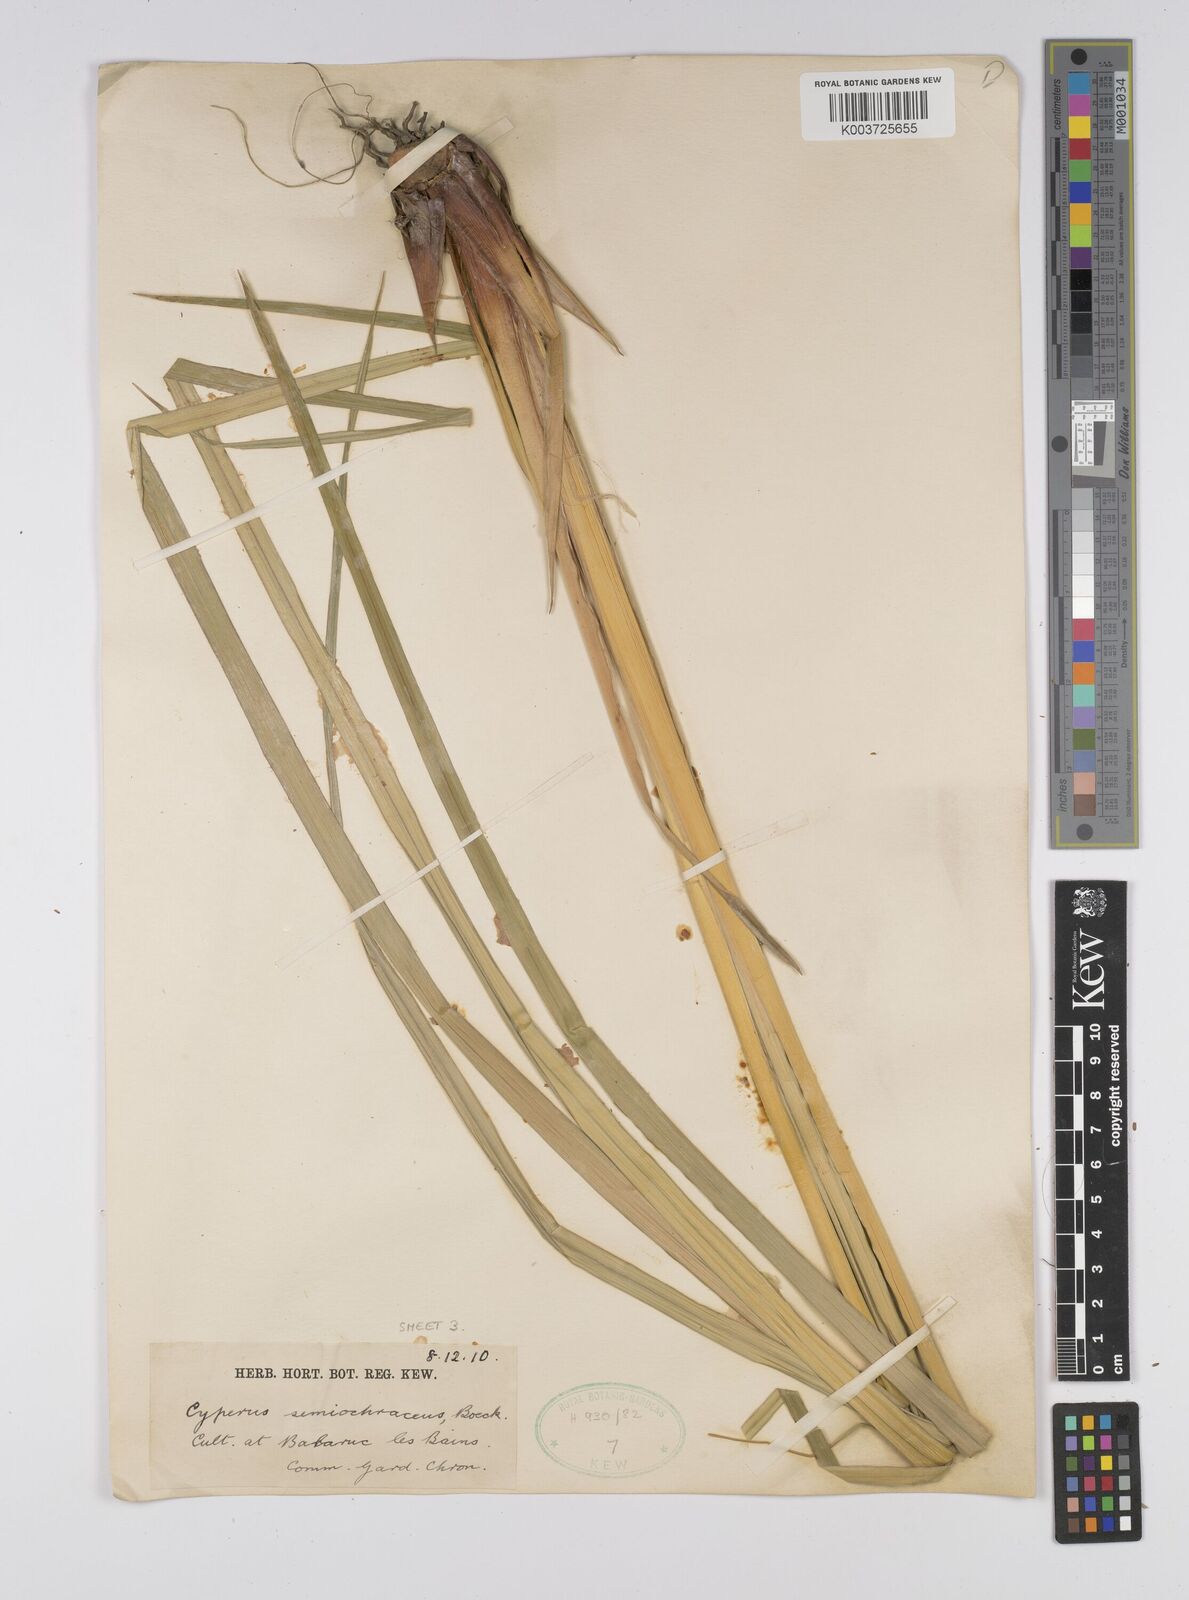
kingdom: Plantae
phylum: Tracheophyta
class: Liliopsida
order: Poales
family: Cyperaceae
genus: Cyperus
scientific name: Cyperus semiochraceus
